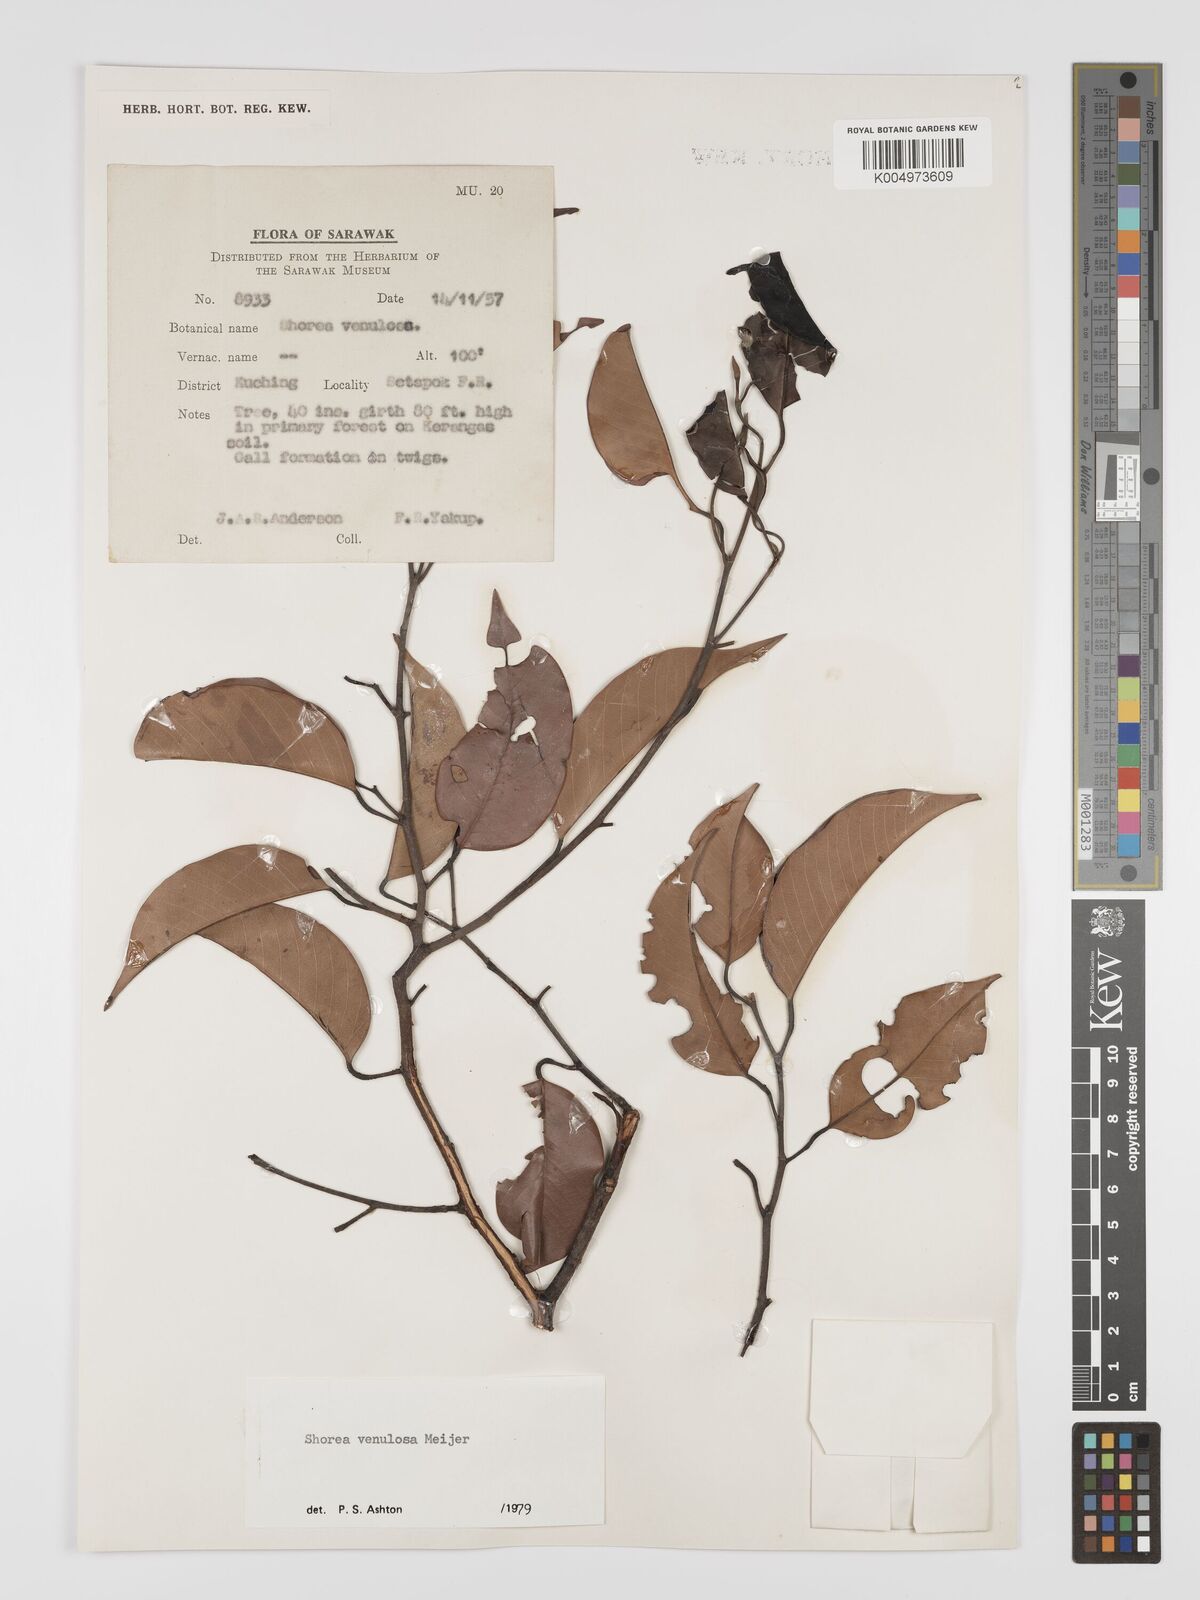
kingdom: Plantae
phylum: Tracheophyta
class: Magnoliopsida
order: Malvales
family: Dipterocarpaceae
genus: Shorea
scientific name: Shorea venulosa
